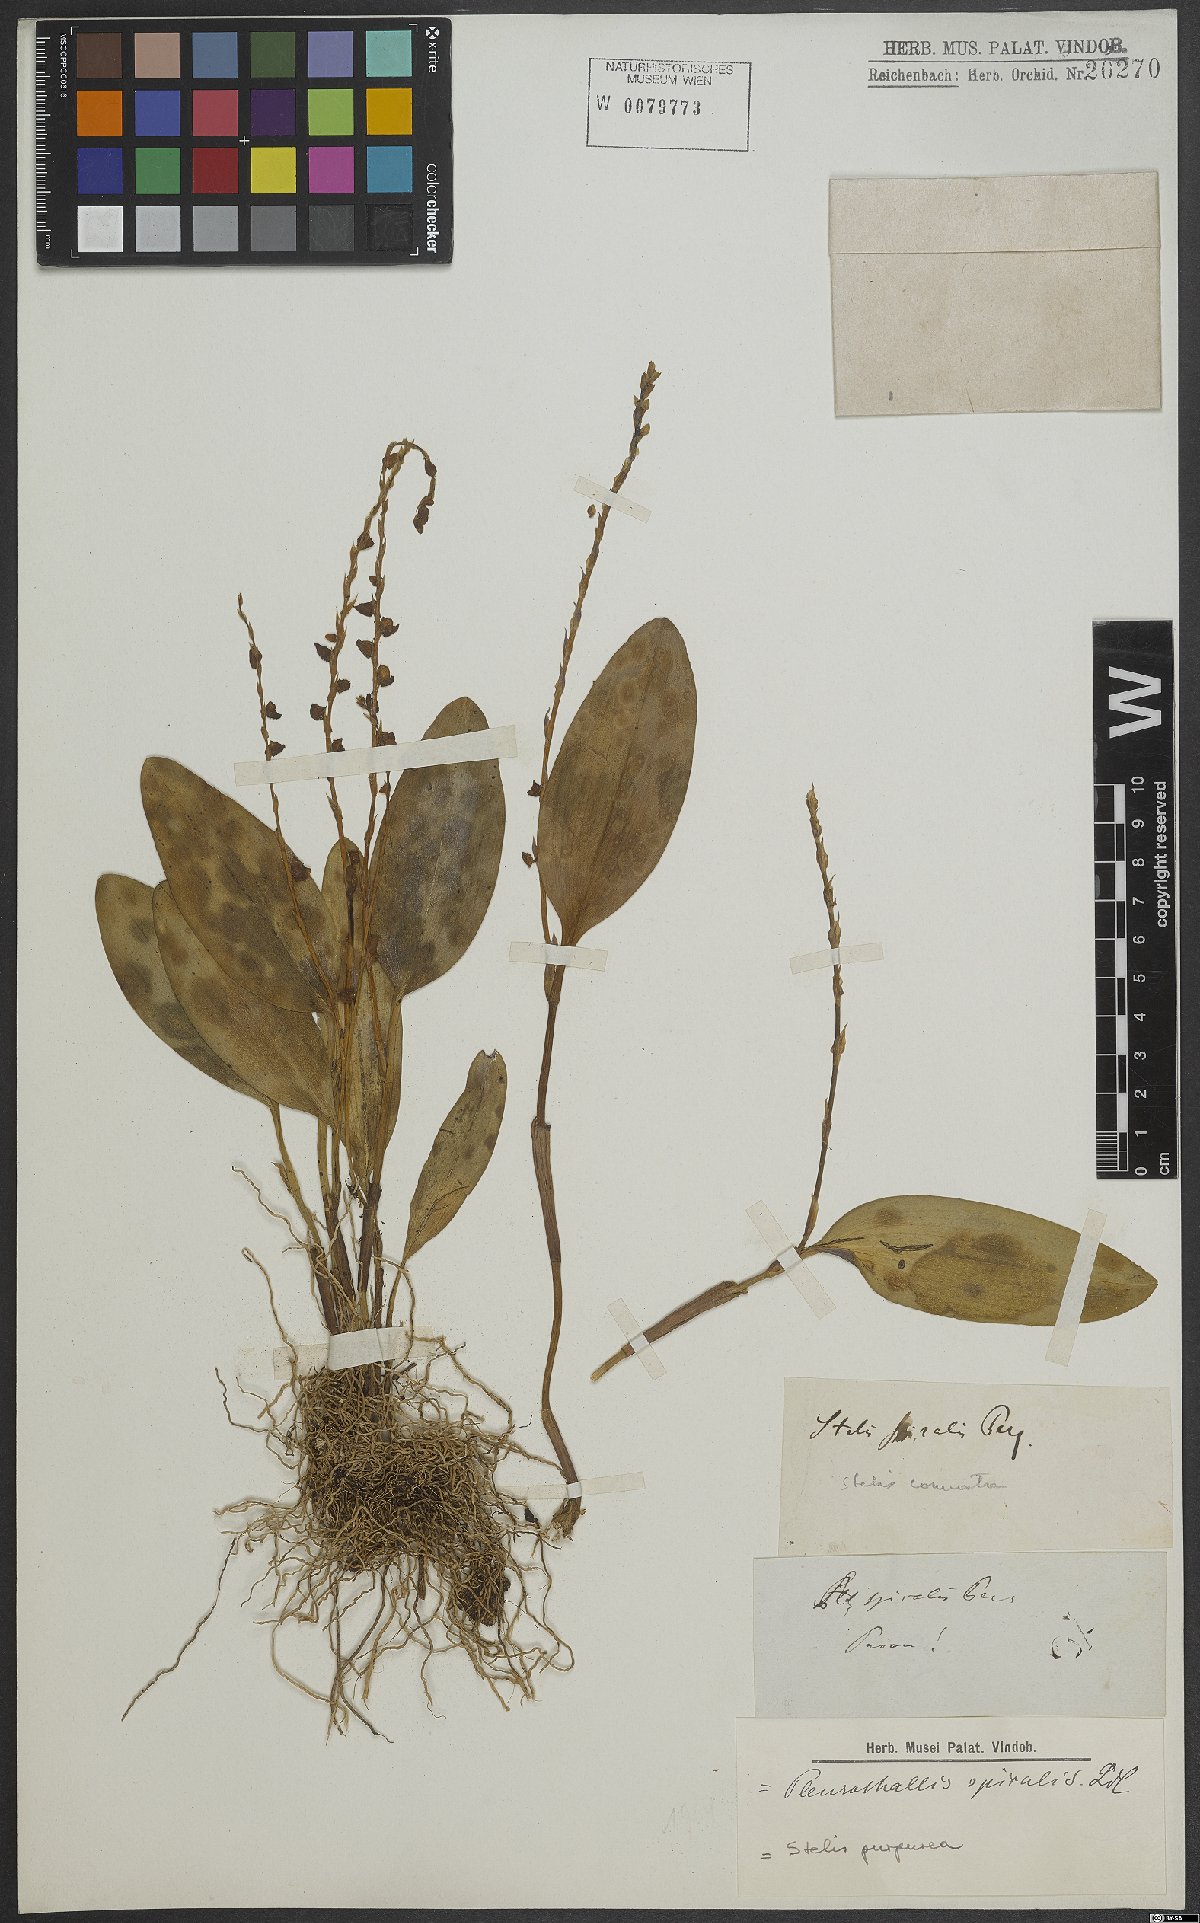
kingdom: Plantae
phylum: Tracheophyta
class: Liliopsida
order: Asparagales
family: Orchidaceae
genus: Stelis
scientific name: Stelis purpurea
